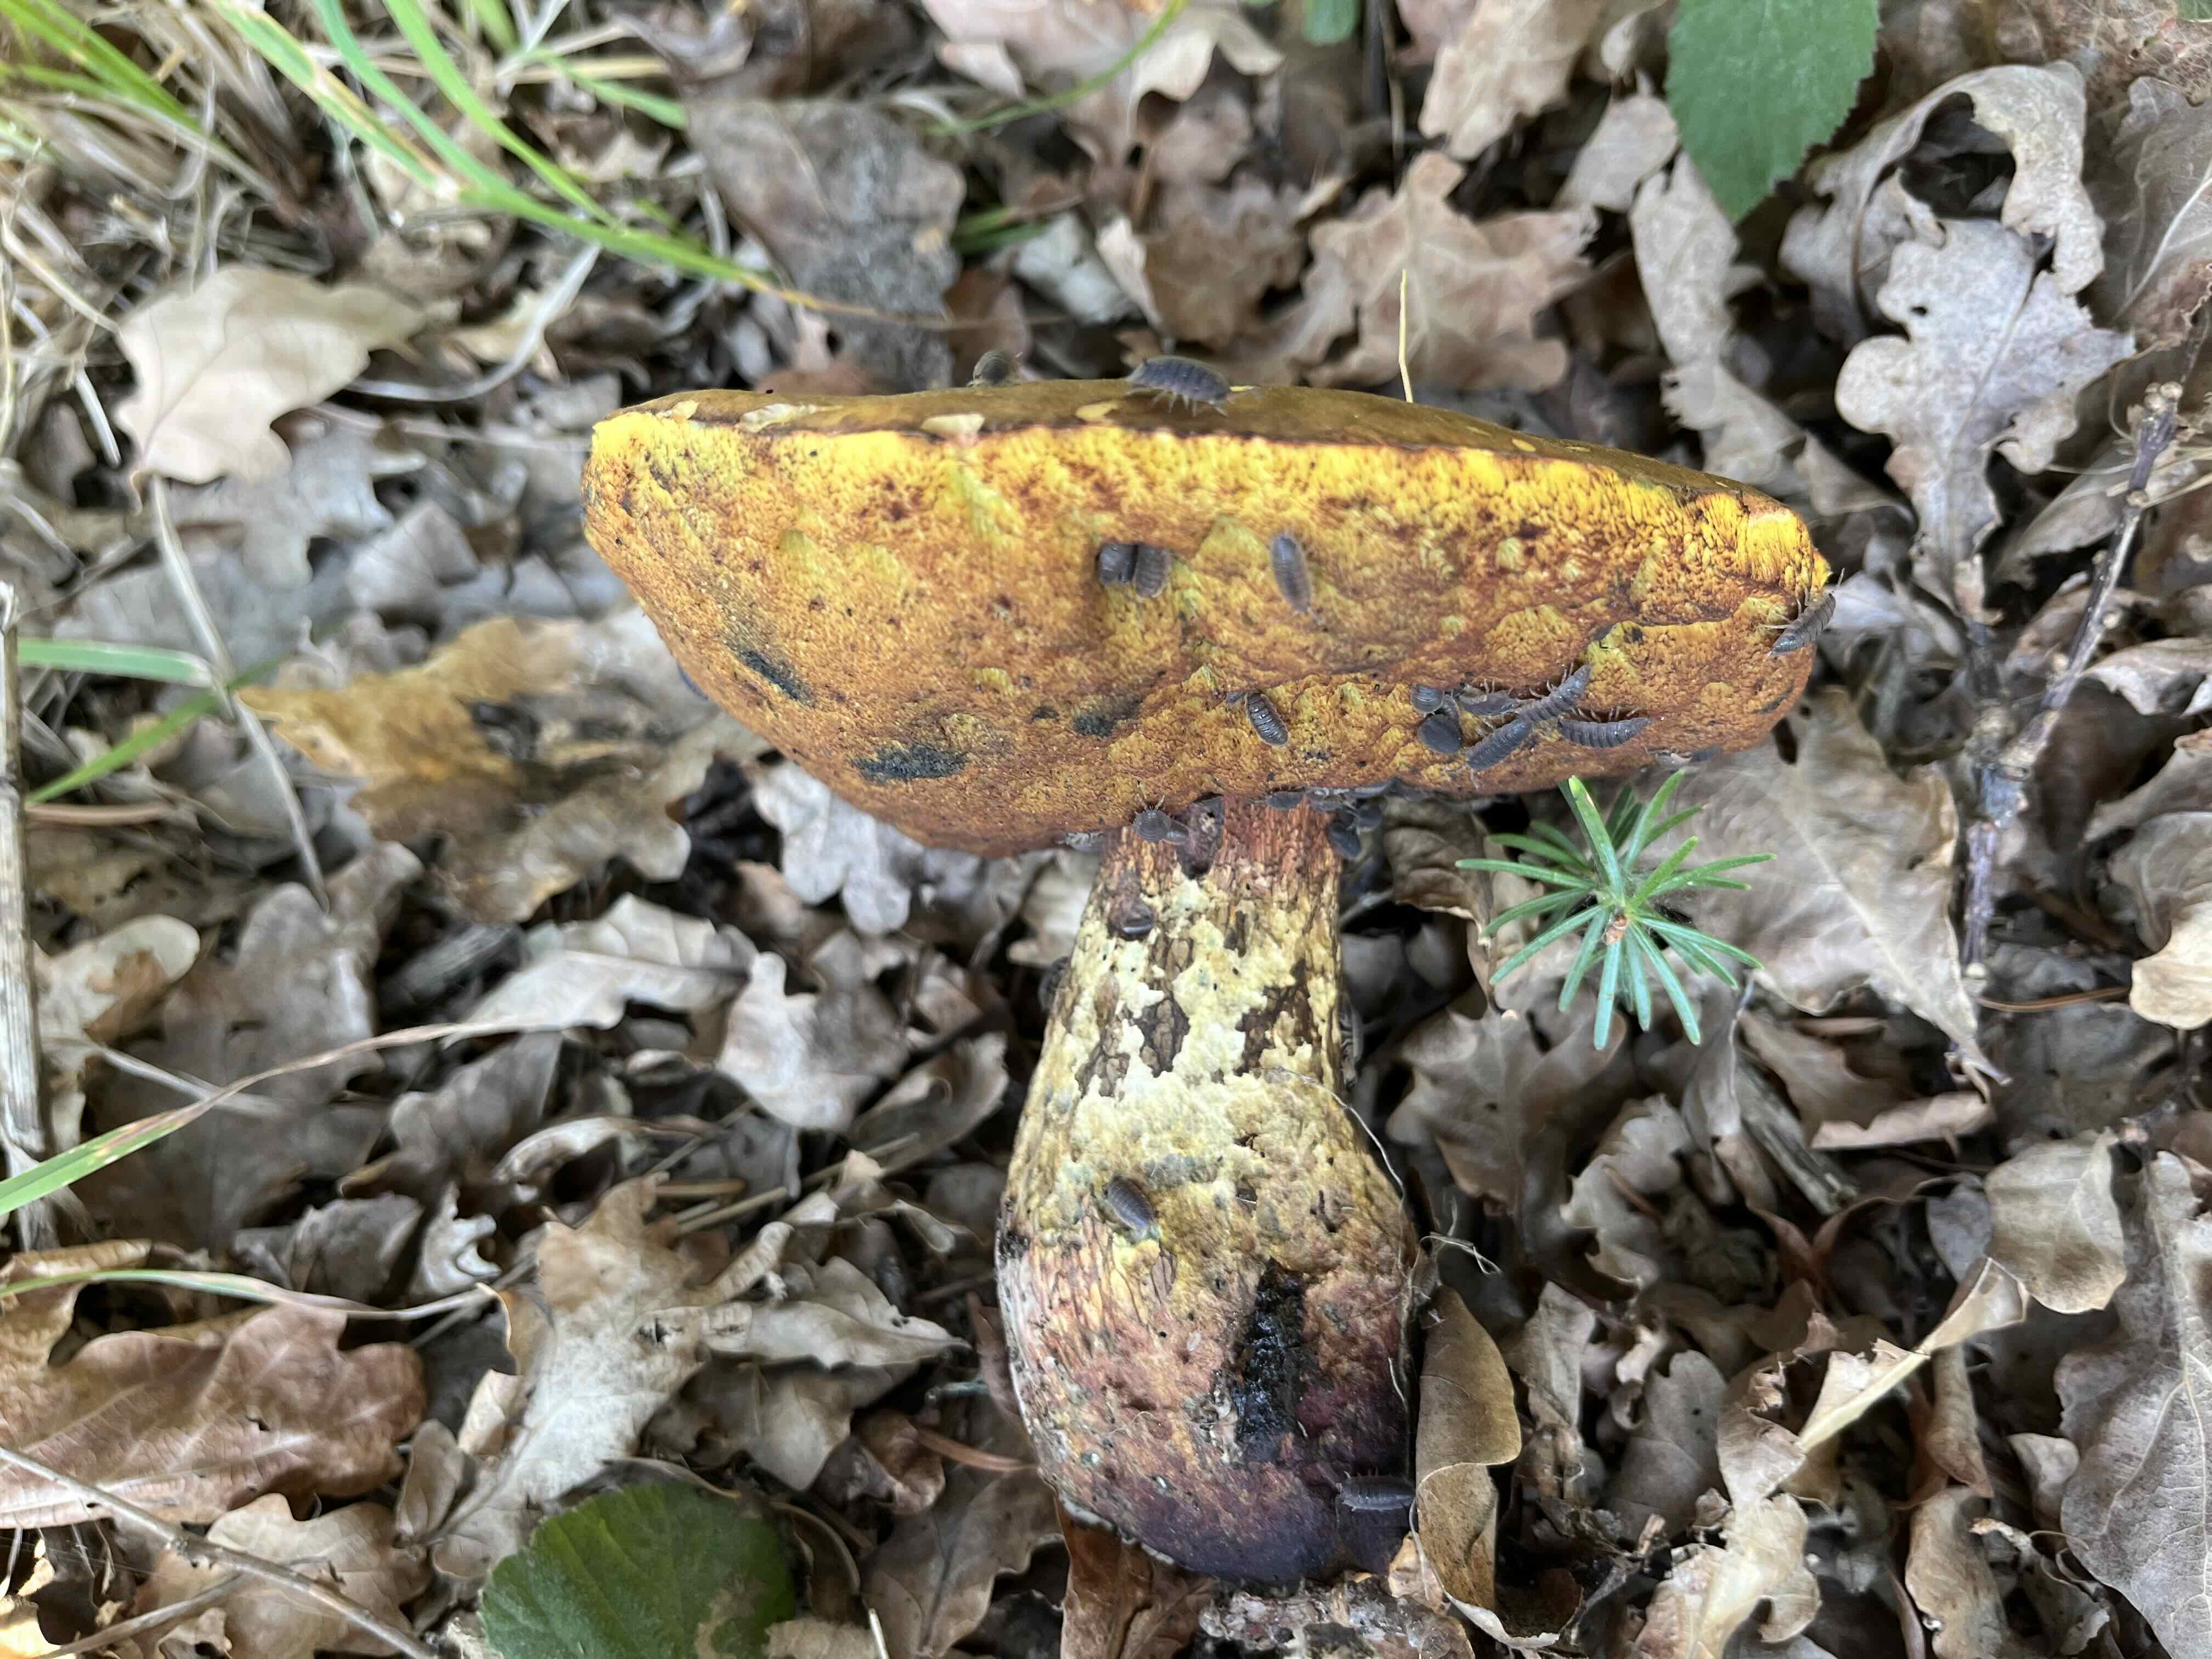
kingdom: Fungi
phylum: Basidiomycota
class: Agaricomycetes
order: Boletales
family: Boletaceae
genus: Suillellus
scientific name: Suillellus luridus
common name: netstokket indigorørhat
